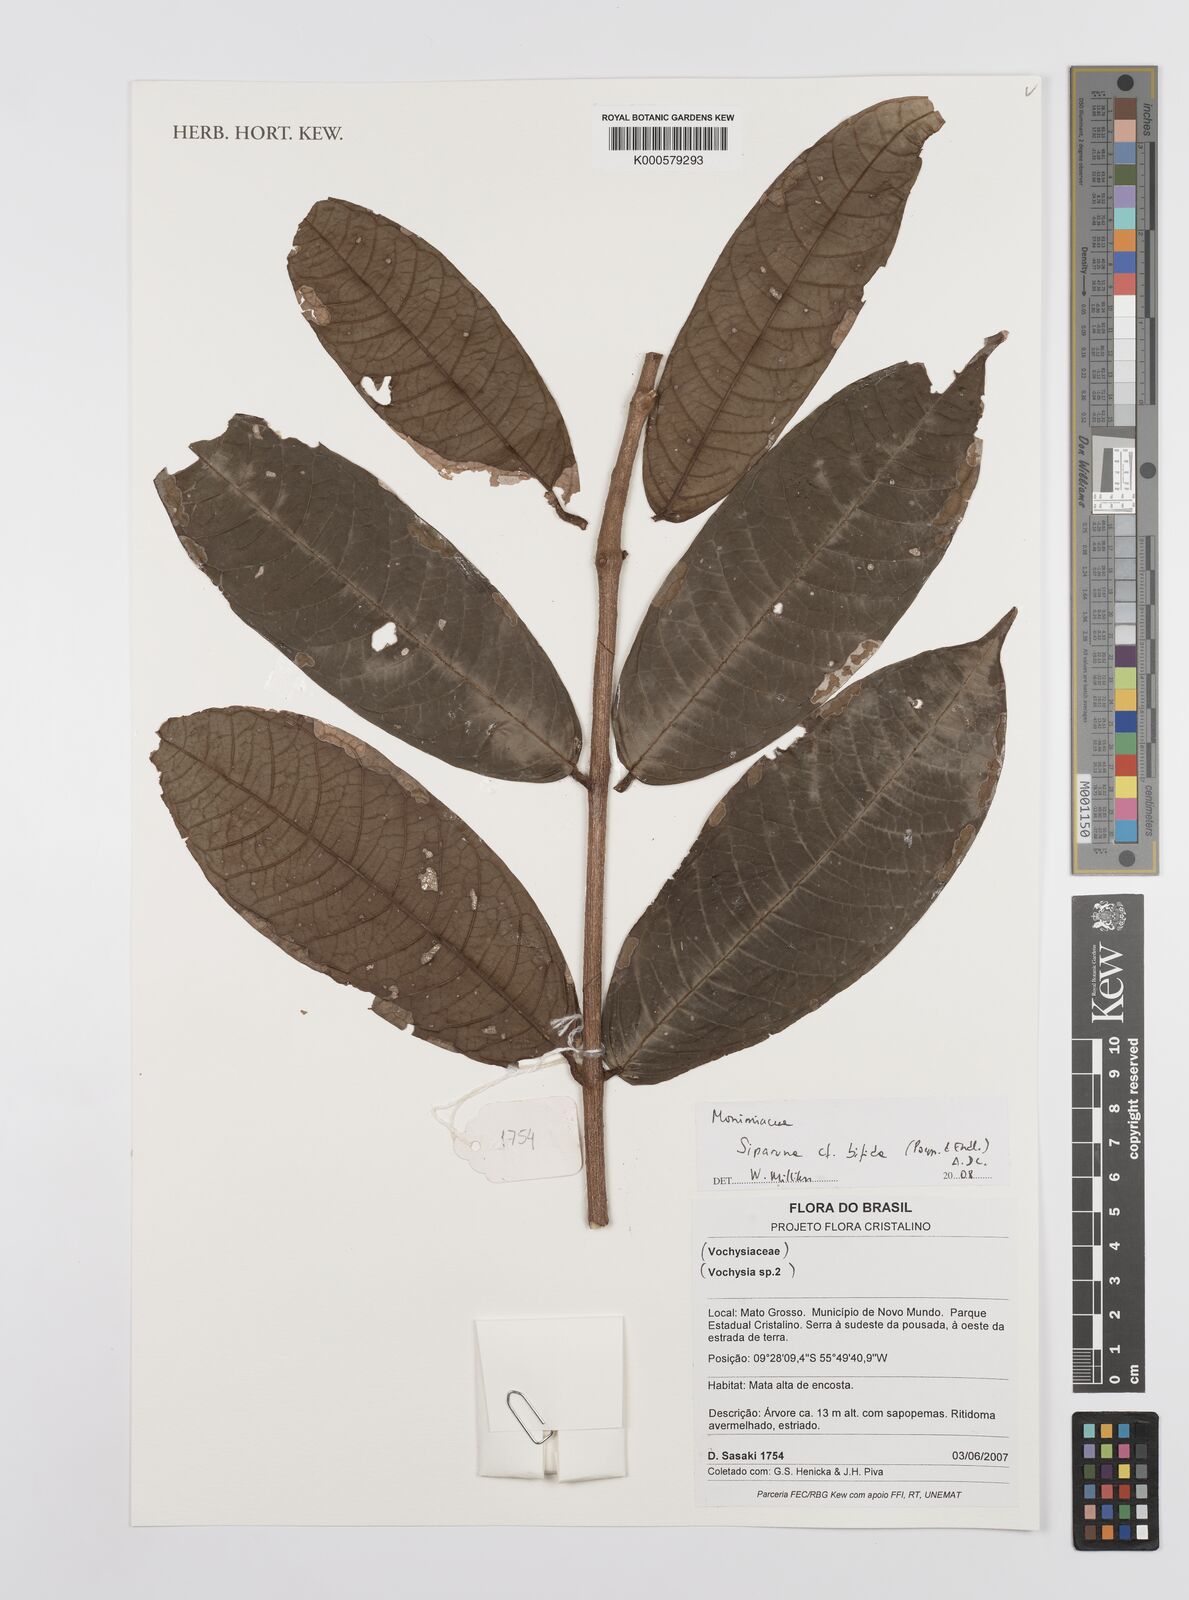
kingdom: Plantae
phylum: Tracheophyta
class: Magnoliopsida
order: Laurales
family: Siparunaceae
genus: Siparuna
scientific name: Siparuna bifida
